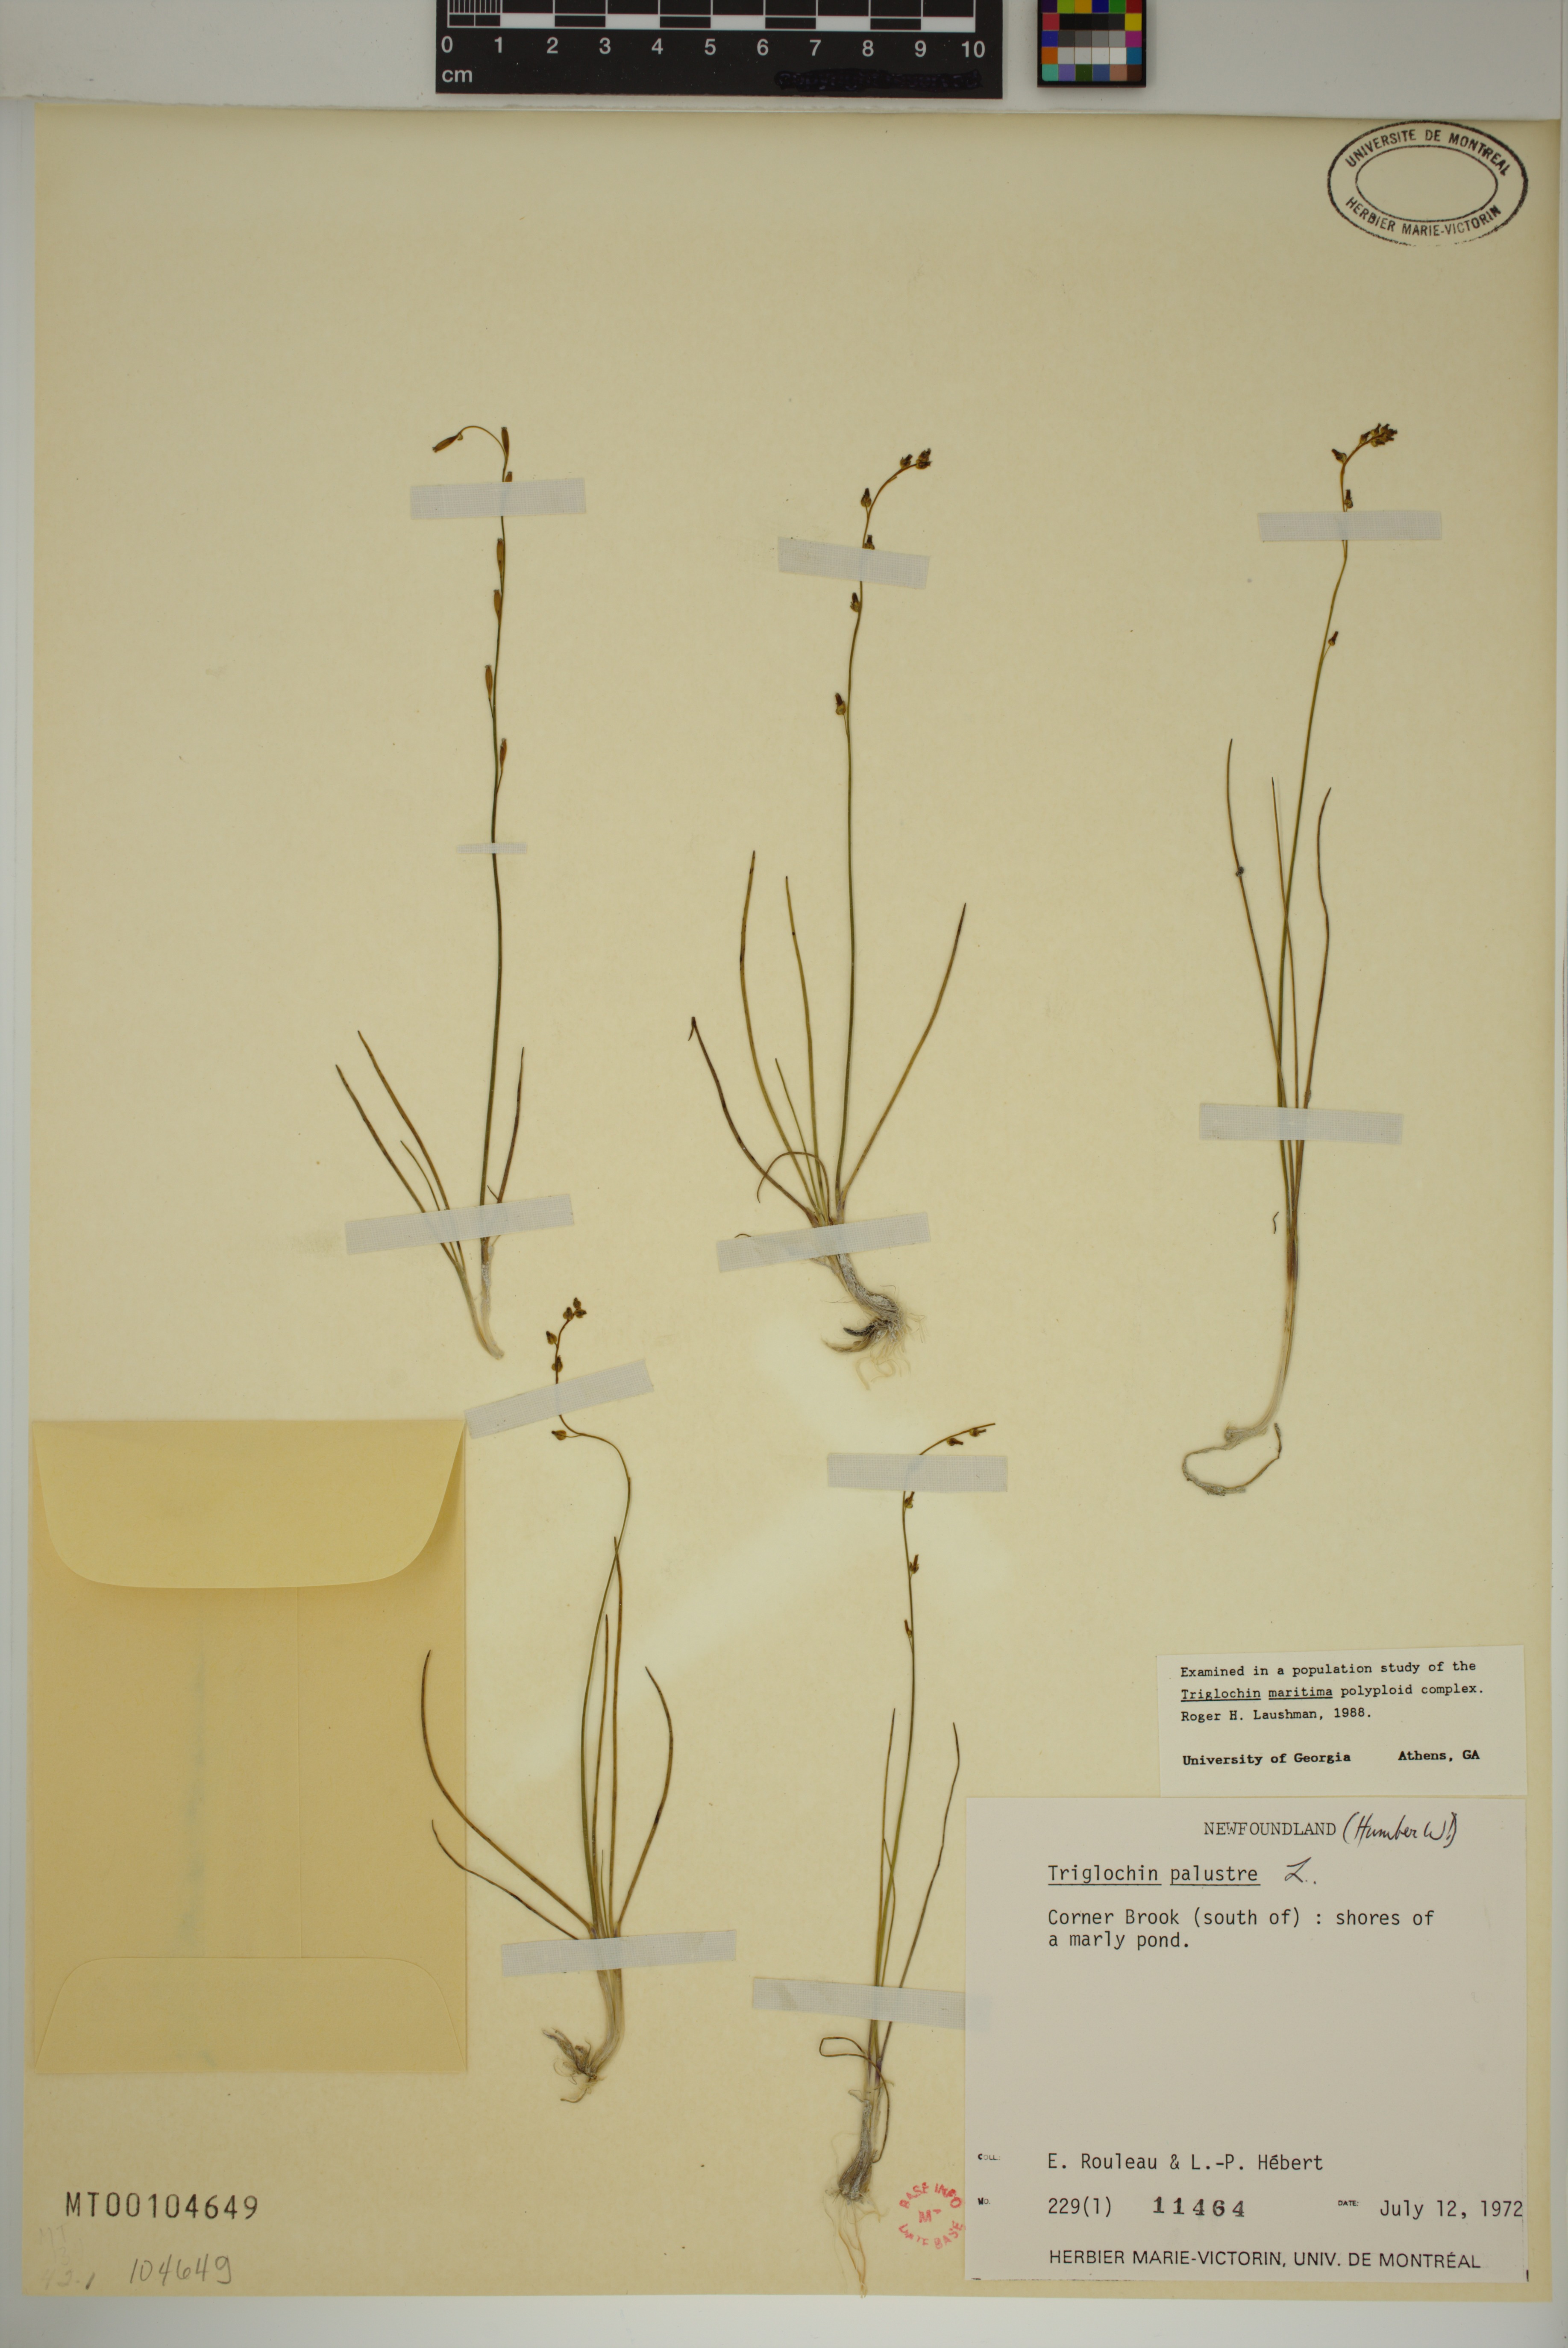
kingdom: Plantae
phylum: Tracheophyta
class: Liliopsida
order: Alismatales
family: Juncaginaceae
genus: Triglochin
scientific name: Triglochin palustris
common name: Marsh arrowgrass
